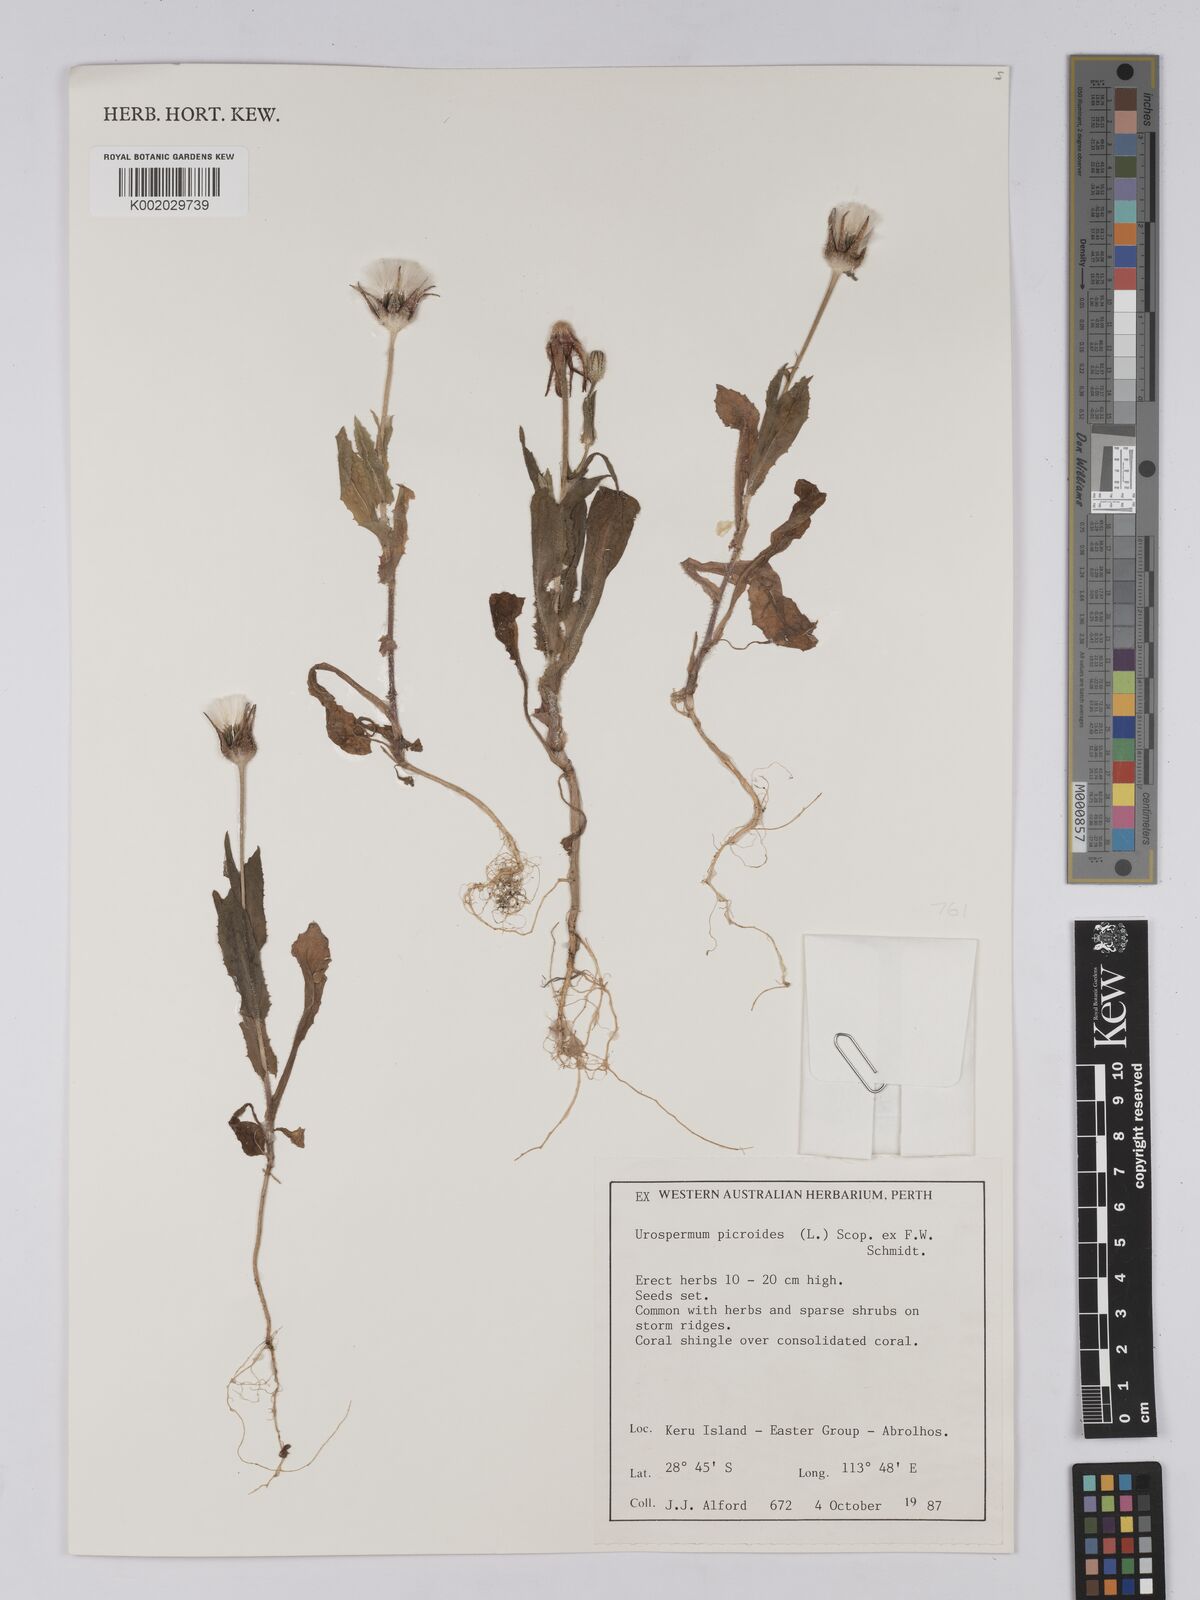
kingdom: Plantae
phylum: Tracheophyta
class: Magnoliopsida
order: Asterales
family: Asteraceae
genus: Urospermum
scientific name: Urospermum picroides
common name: False hawkbit
